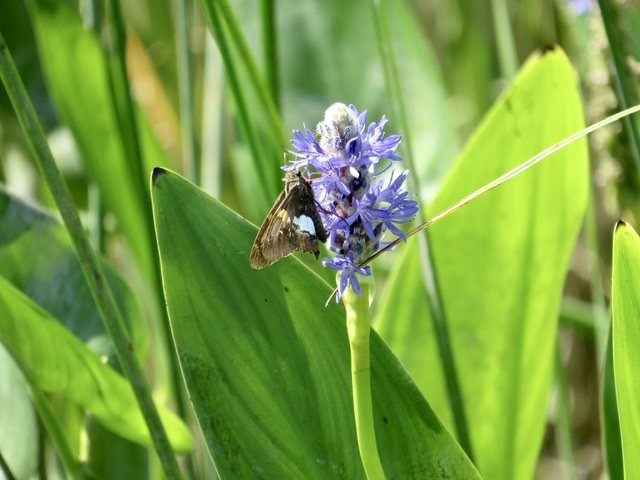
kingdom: Animalia
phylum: Arthropoda
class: Insecta
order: Lepidoptera
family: Hesperiidae
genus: Epargyreus
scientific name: Epargyreus clarus
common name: Silver-spotted Skipper
